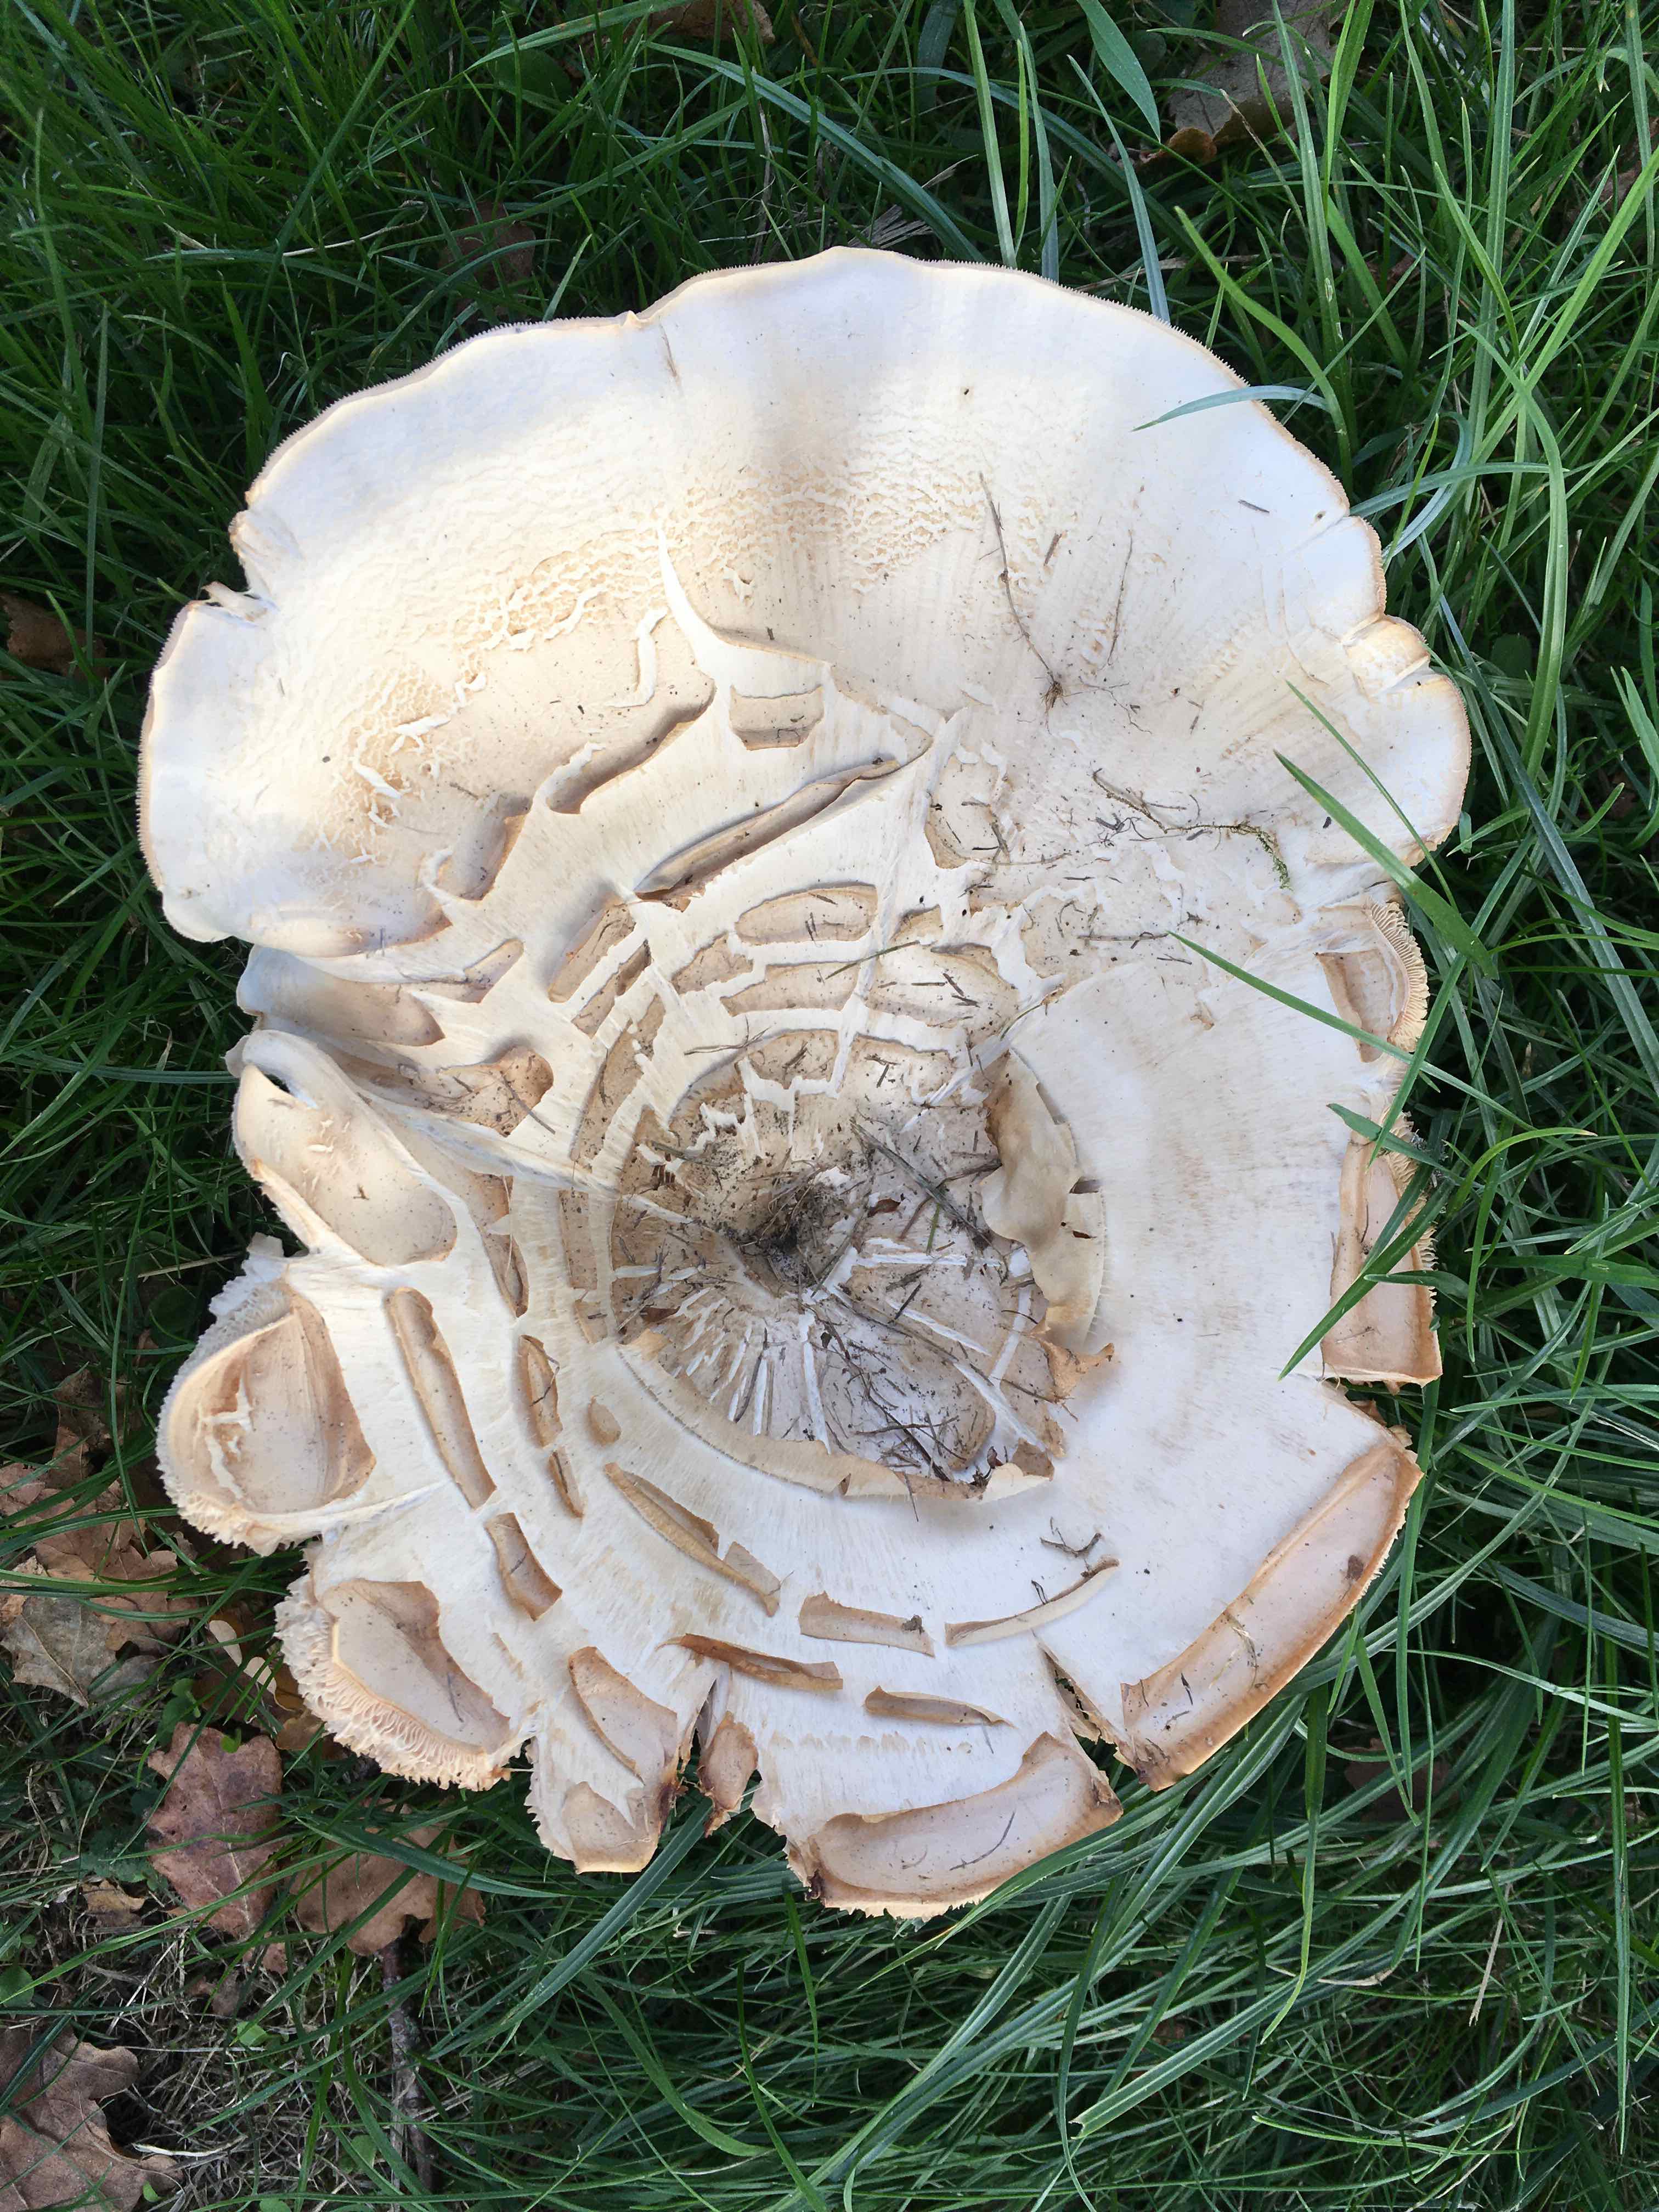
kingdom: Fungi
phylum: Basidiomycota
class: Agaricomycetes
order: Agaricales
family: Tricholomataceae
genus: Aspropaxillus
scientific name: Aspropaxillus giganteus
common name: kæmpe-tragtridderhat
